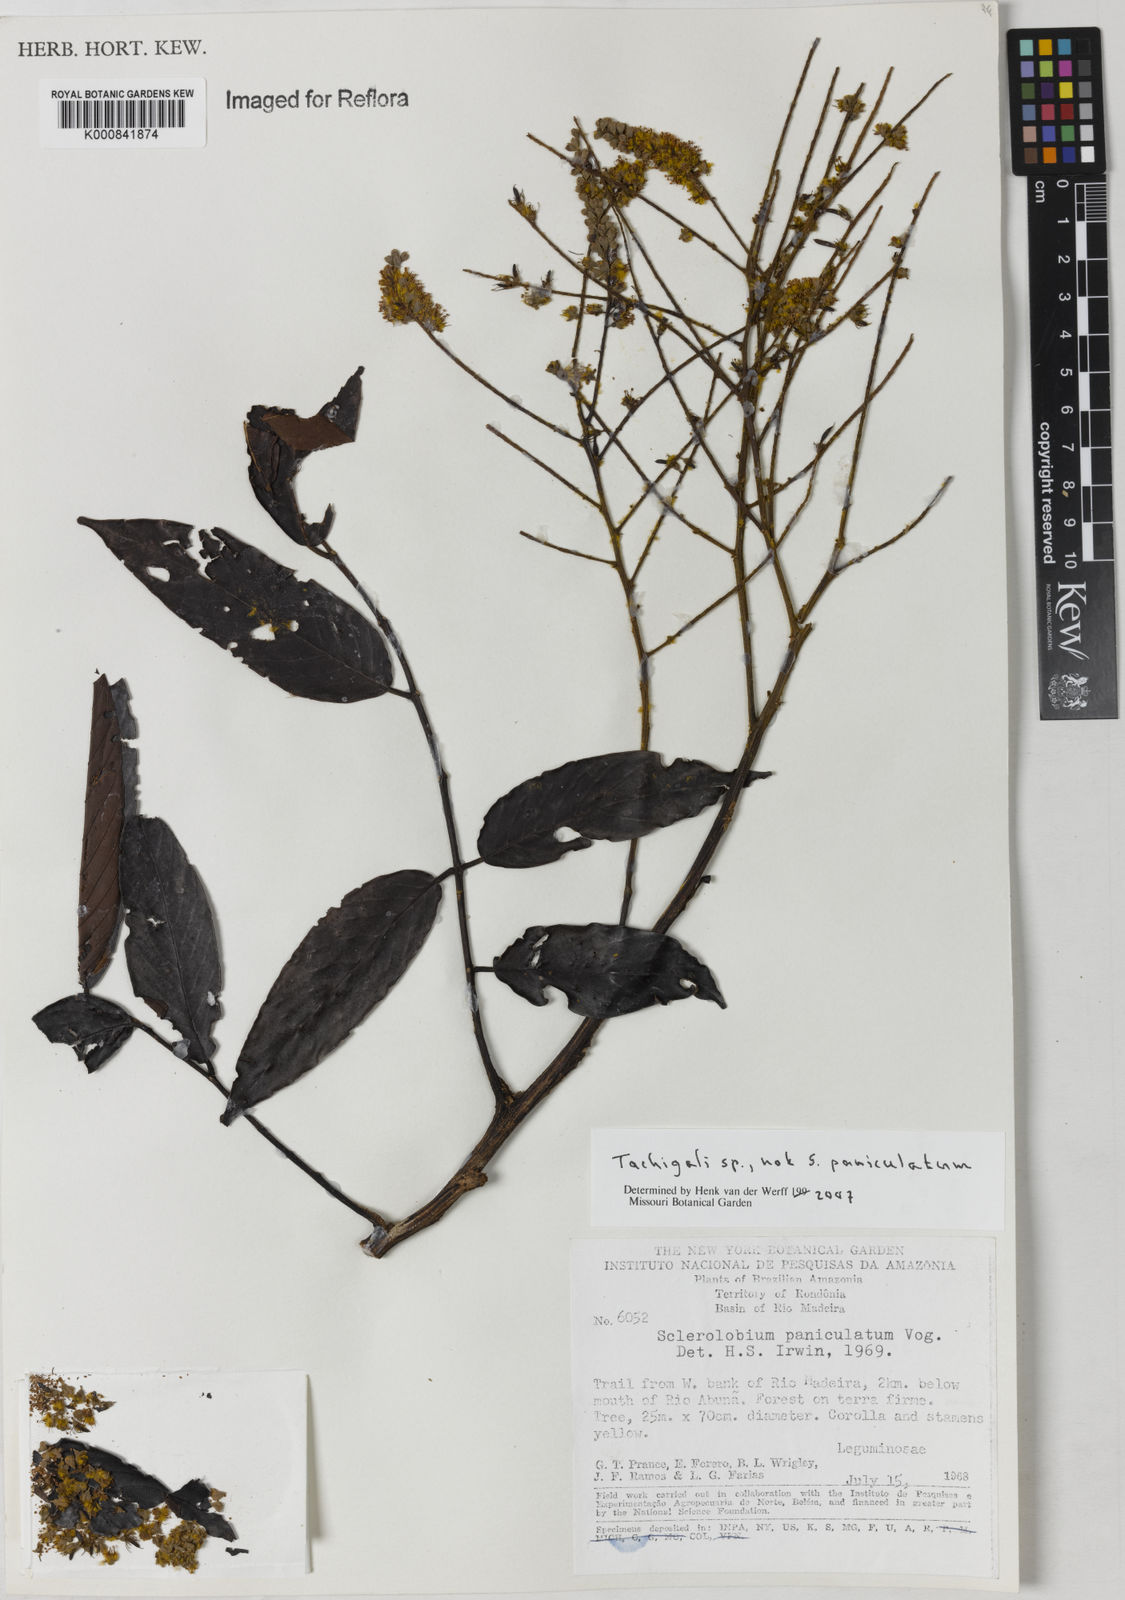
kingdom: Plantae
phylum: Tracheophyta
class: Magnoliopsida
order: Fabales
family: Fabaceae
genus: Tachigali
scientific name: Tachigali
